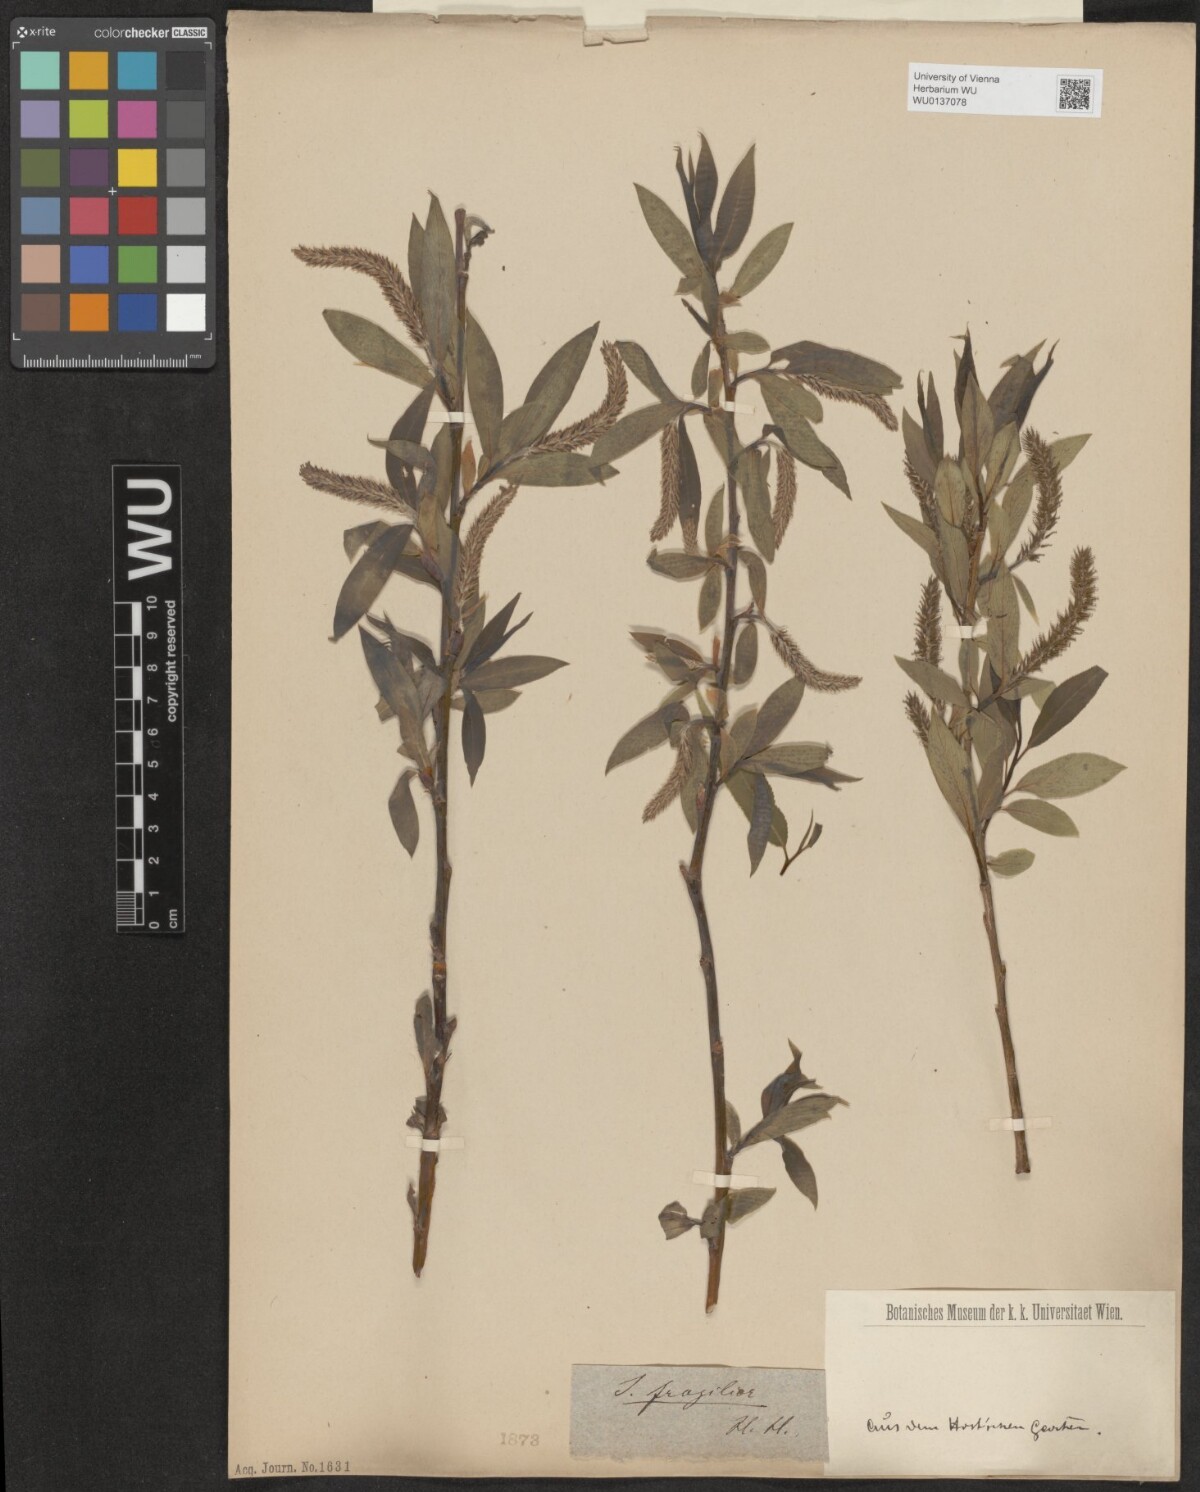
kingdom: Plantae
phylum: Tracheophyta
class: Magnoliopsida
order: Malpighiales
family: Salicaceae
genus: Salix
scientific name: Salix fragilis
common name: Crack willow
